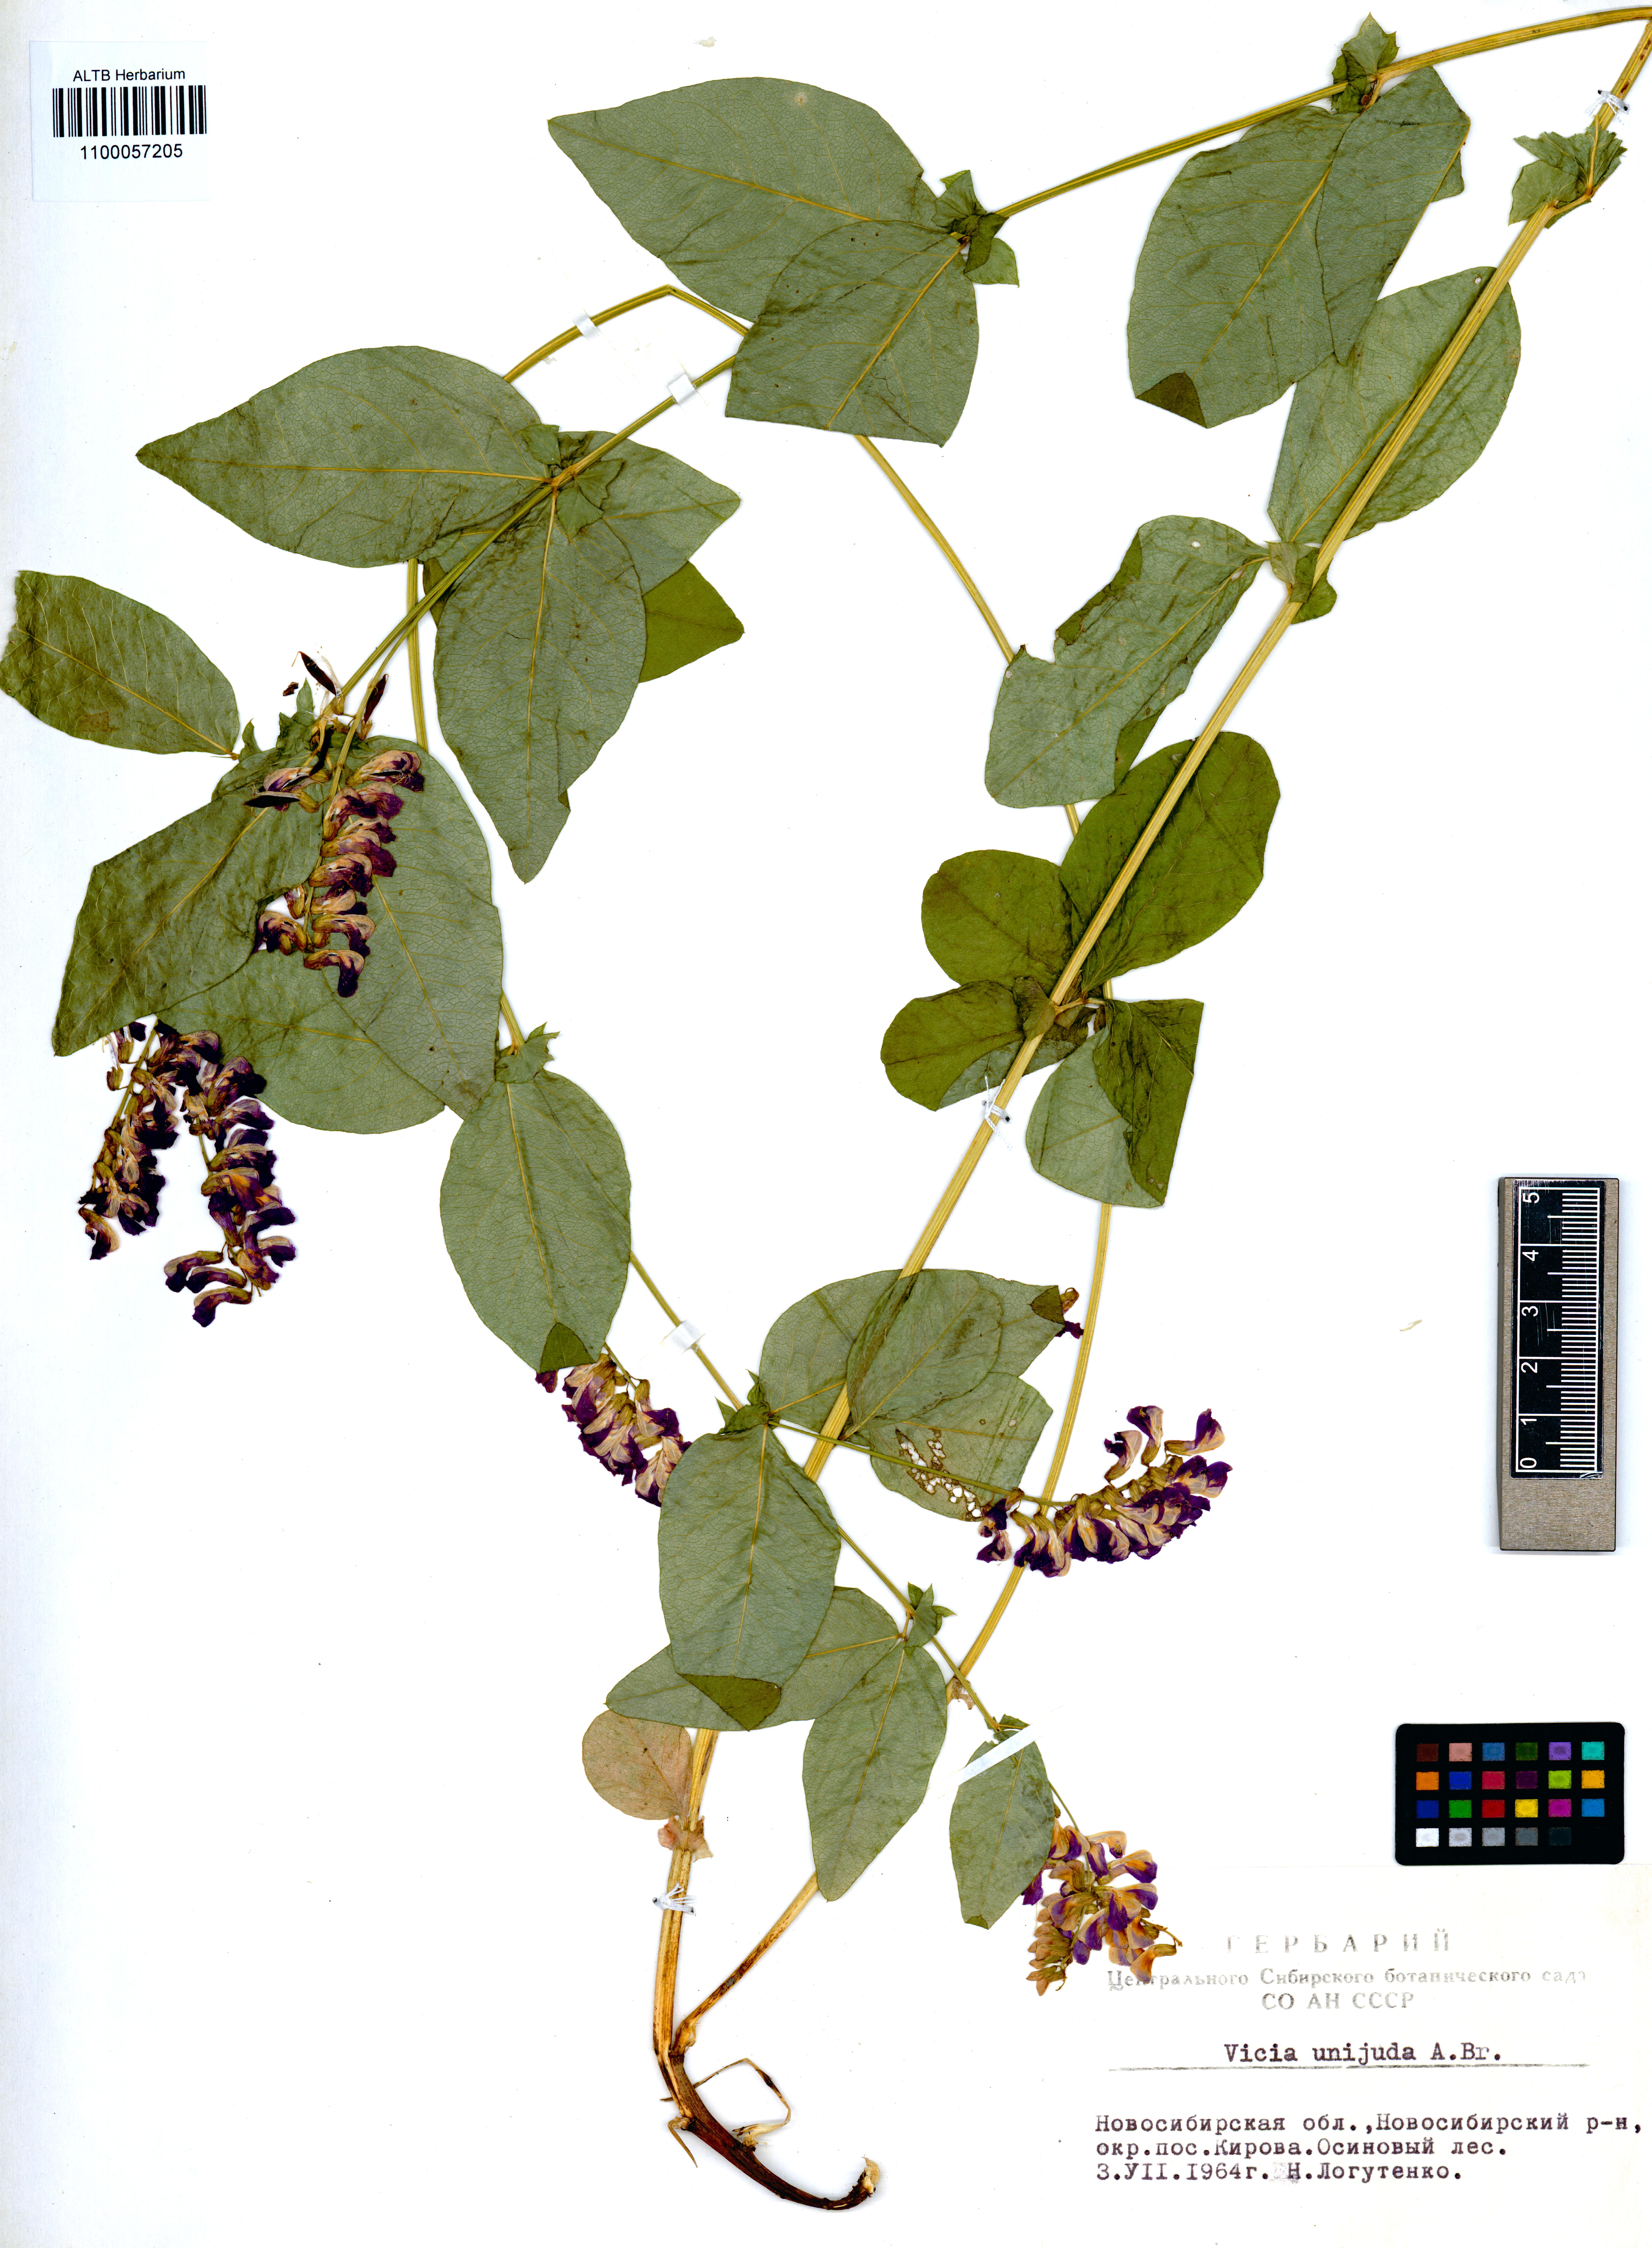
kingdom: Plantae
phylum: Tracheophyta
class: Magnoliopsida
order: Fabales
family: Fabaceae
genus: Vicia
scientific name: Vicia unijuga
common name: Two-leaf vetch
